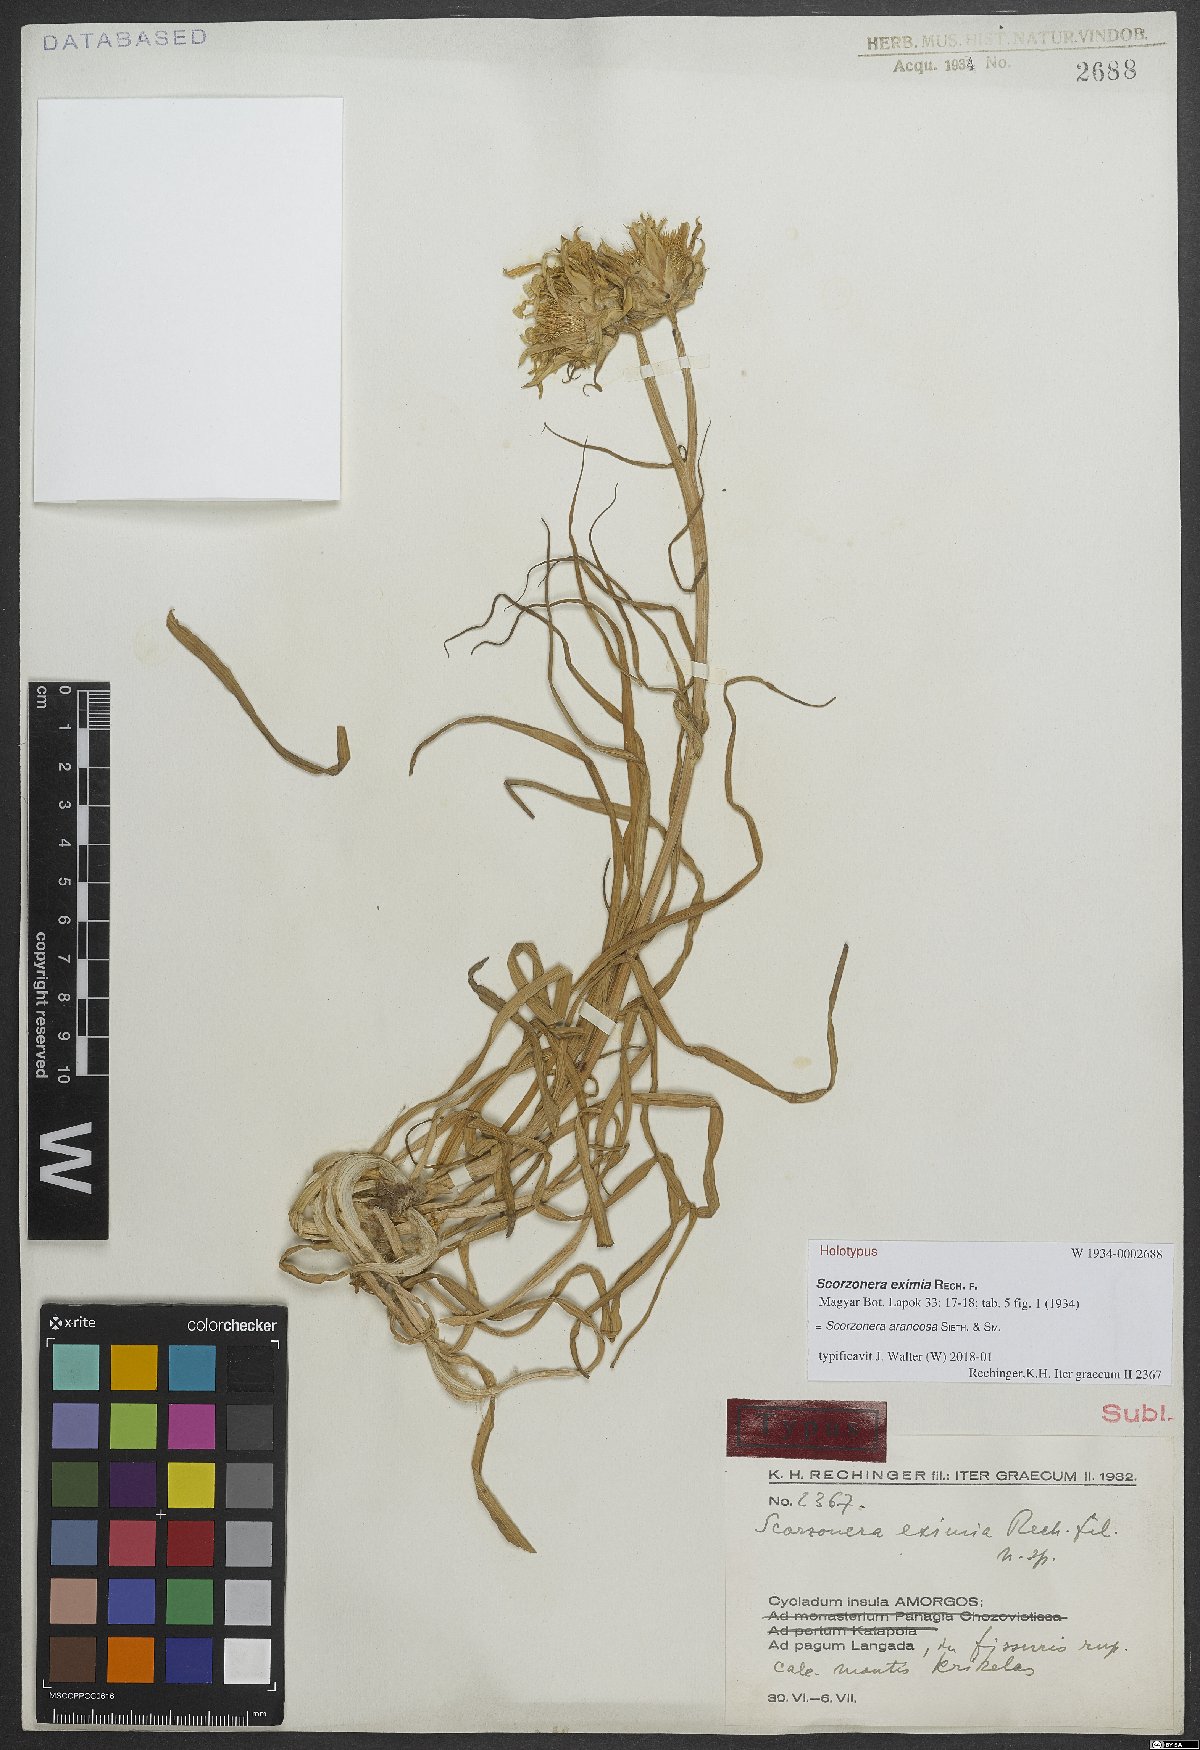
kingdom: Plantae
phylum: Tracheophyta
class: Magnoliopsida
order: Asterales
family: Asteraceae
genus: Gelasia
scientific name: Gelasia araneosa
